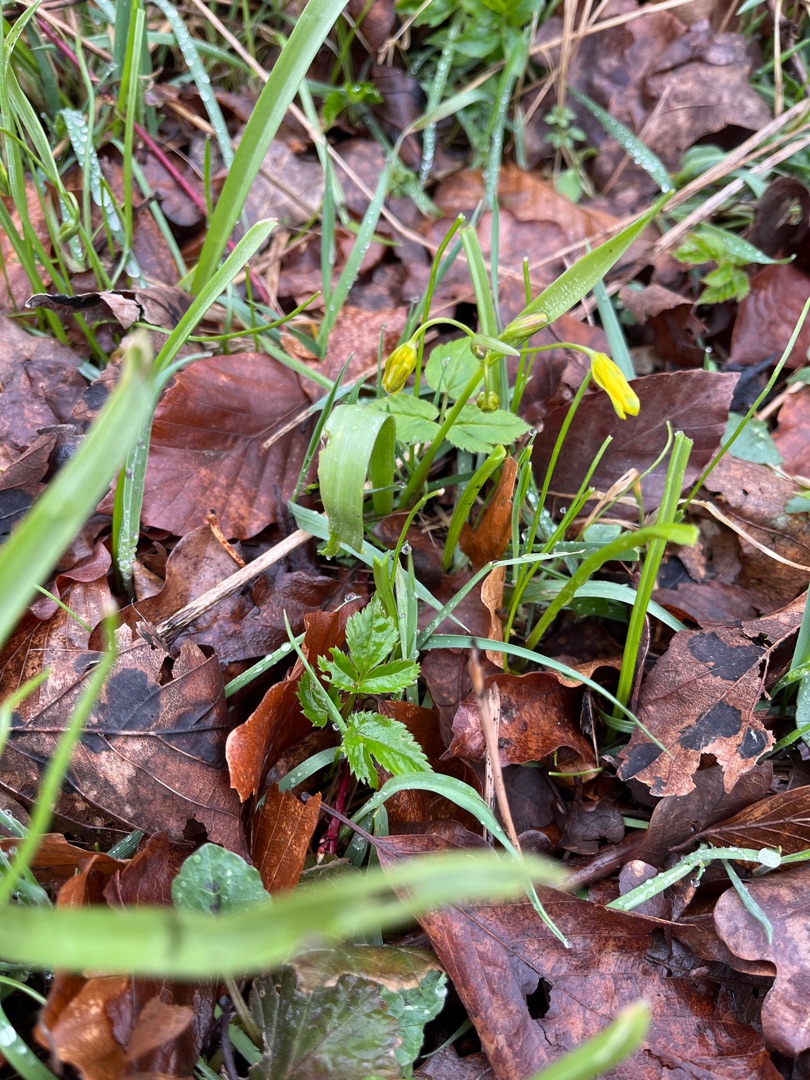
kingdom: Plantae
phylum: Tracheophyta
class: Liliopsida
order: Liliales
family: Liliaceae
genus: Gagea
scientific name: Gagea lutea
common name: Almindelig guldstjerne
